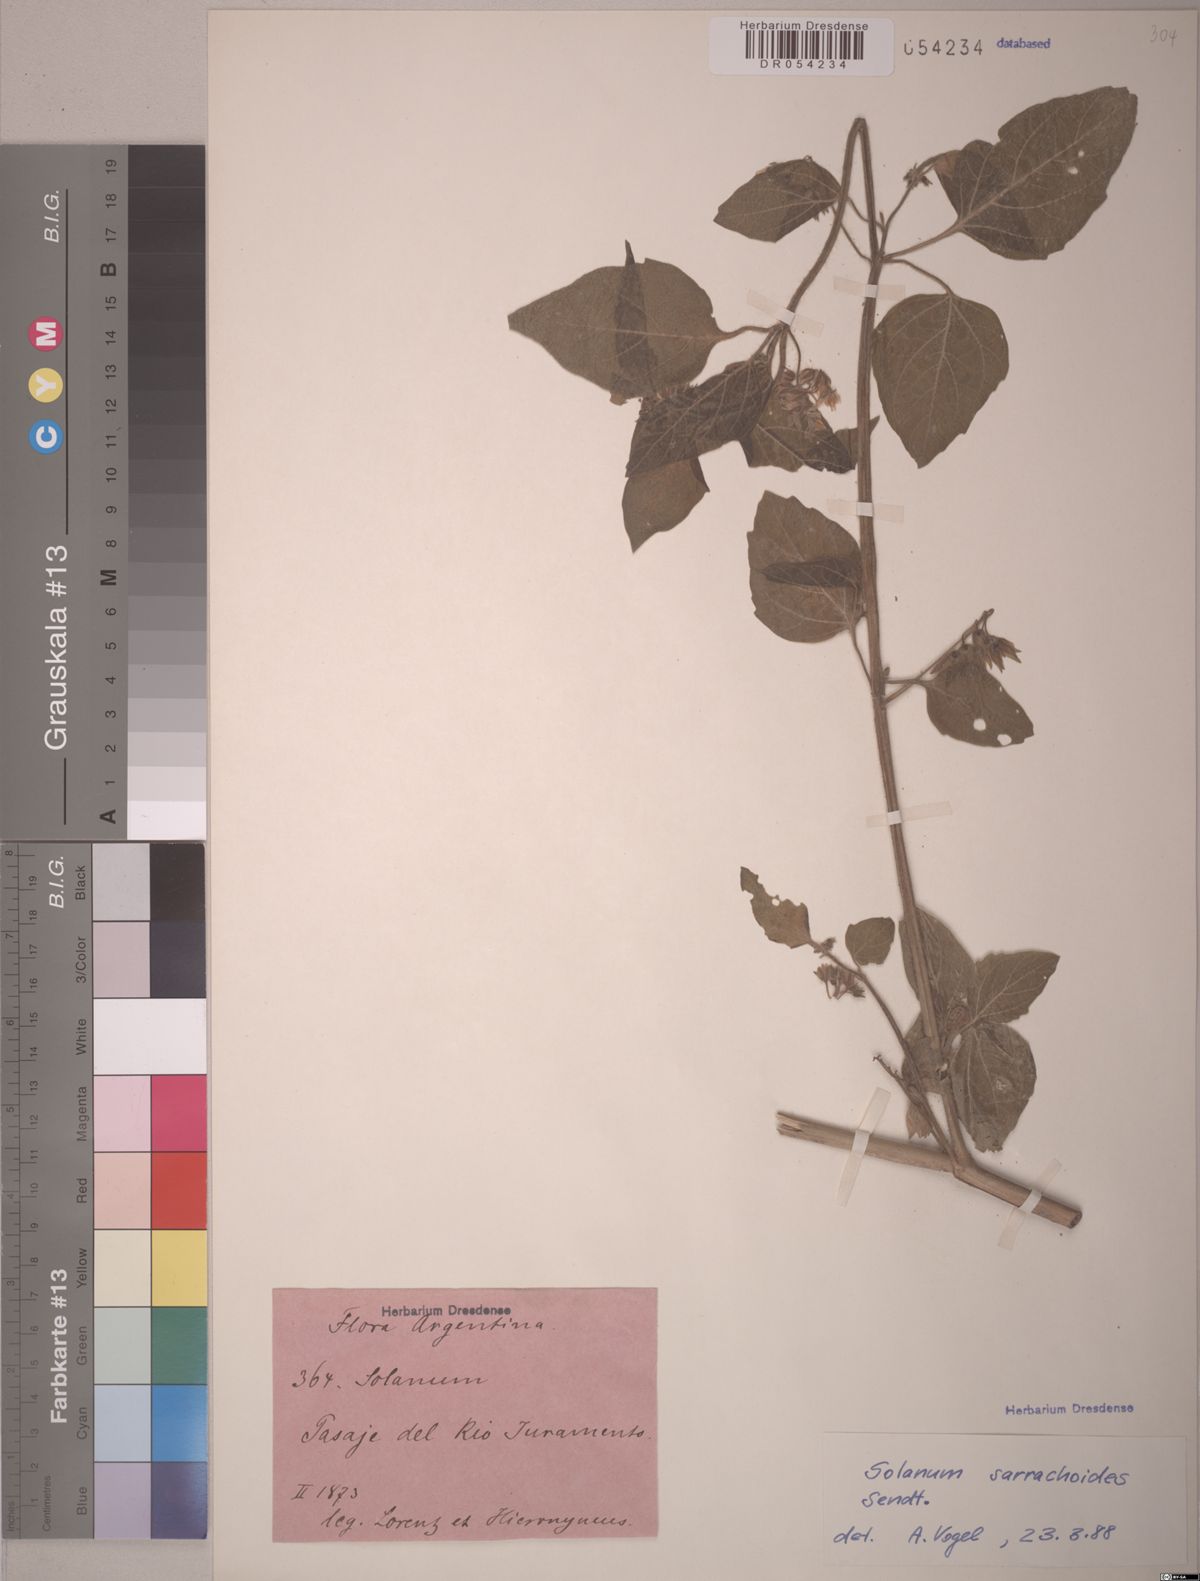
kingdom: Plantae
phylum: Tracheophyta
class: Magnoliopsida
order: Solanales
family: Solanaceae
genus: Solanum
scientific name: Solanum physalidicalyx
